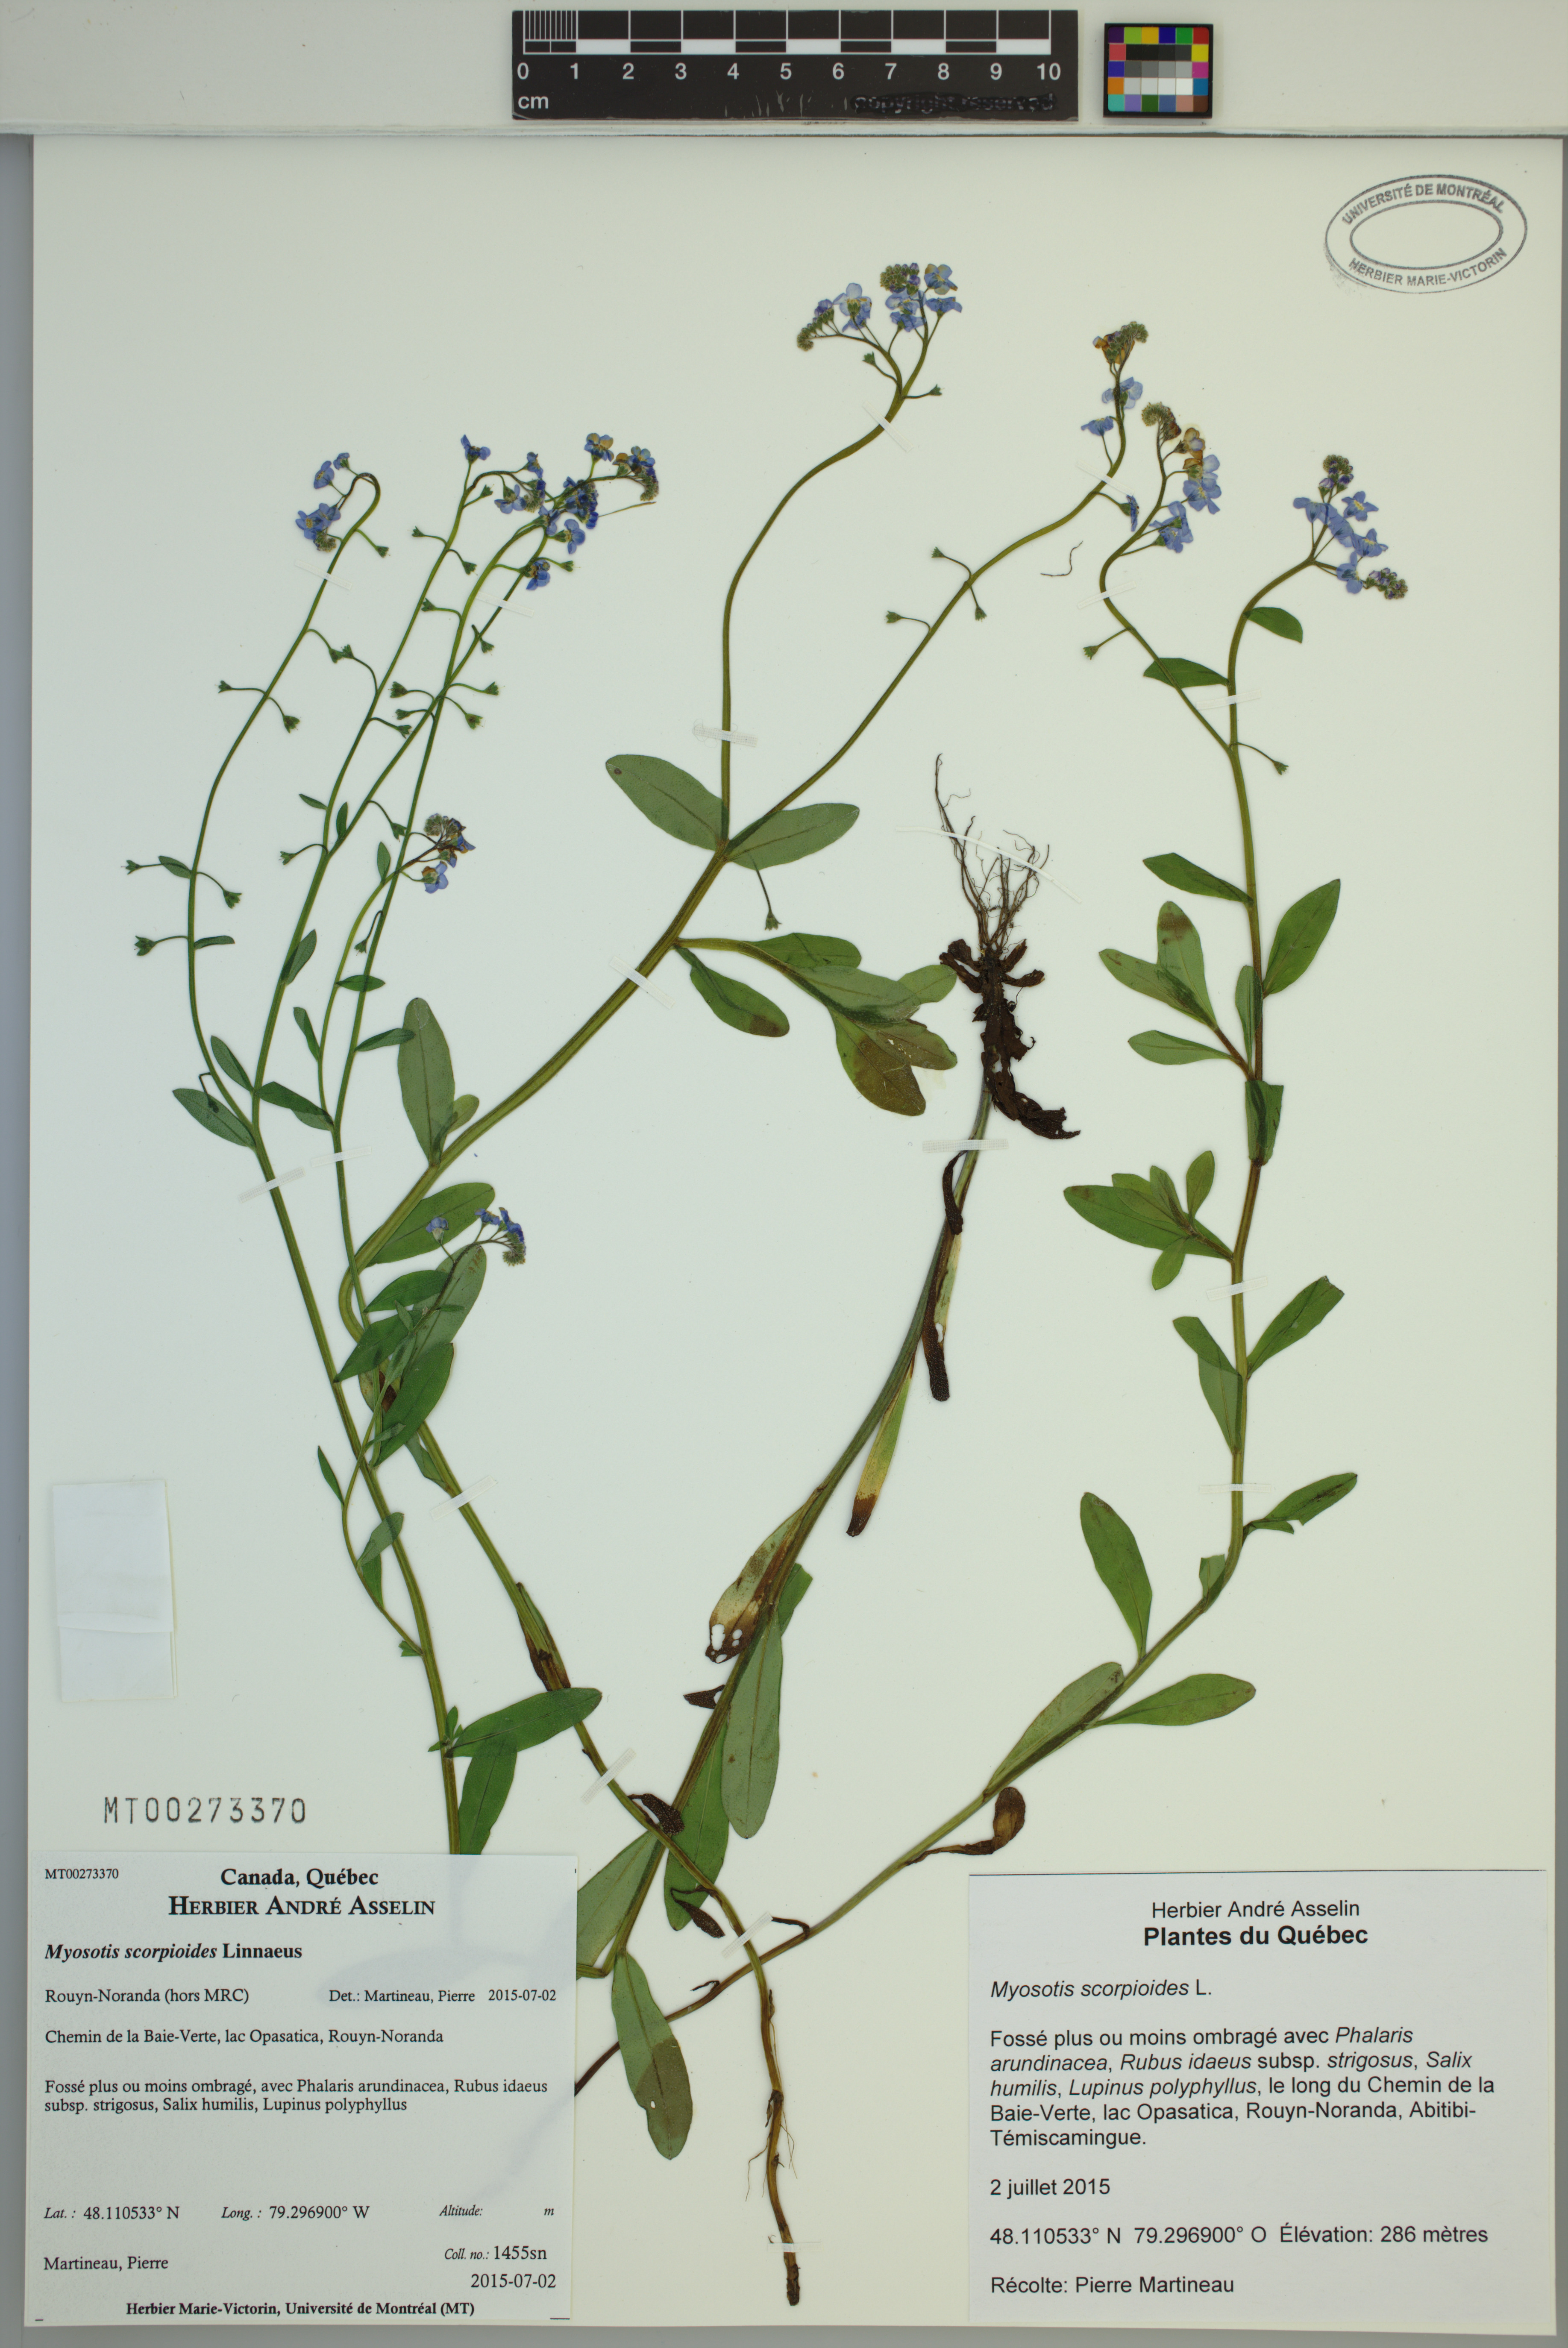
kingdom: Plantae
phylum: Tracheophyta
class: Magnoliopsida
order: Boraginales
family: Boraginaceae
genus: Myosotis
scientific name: Myosotis scorpioides
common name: Water forget-me-not
